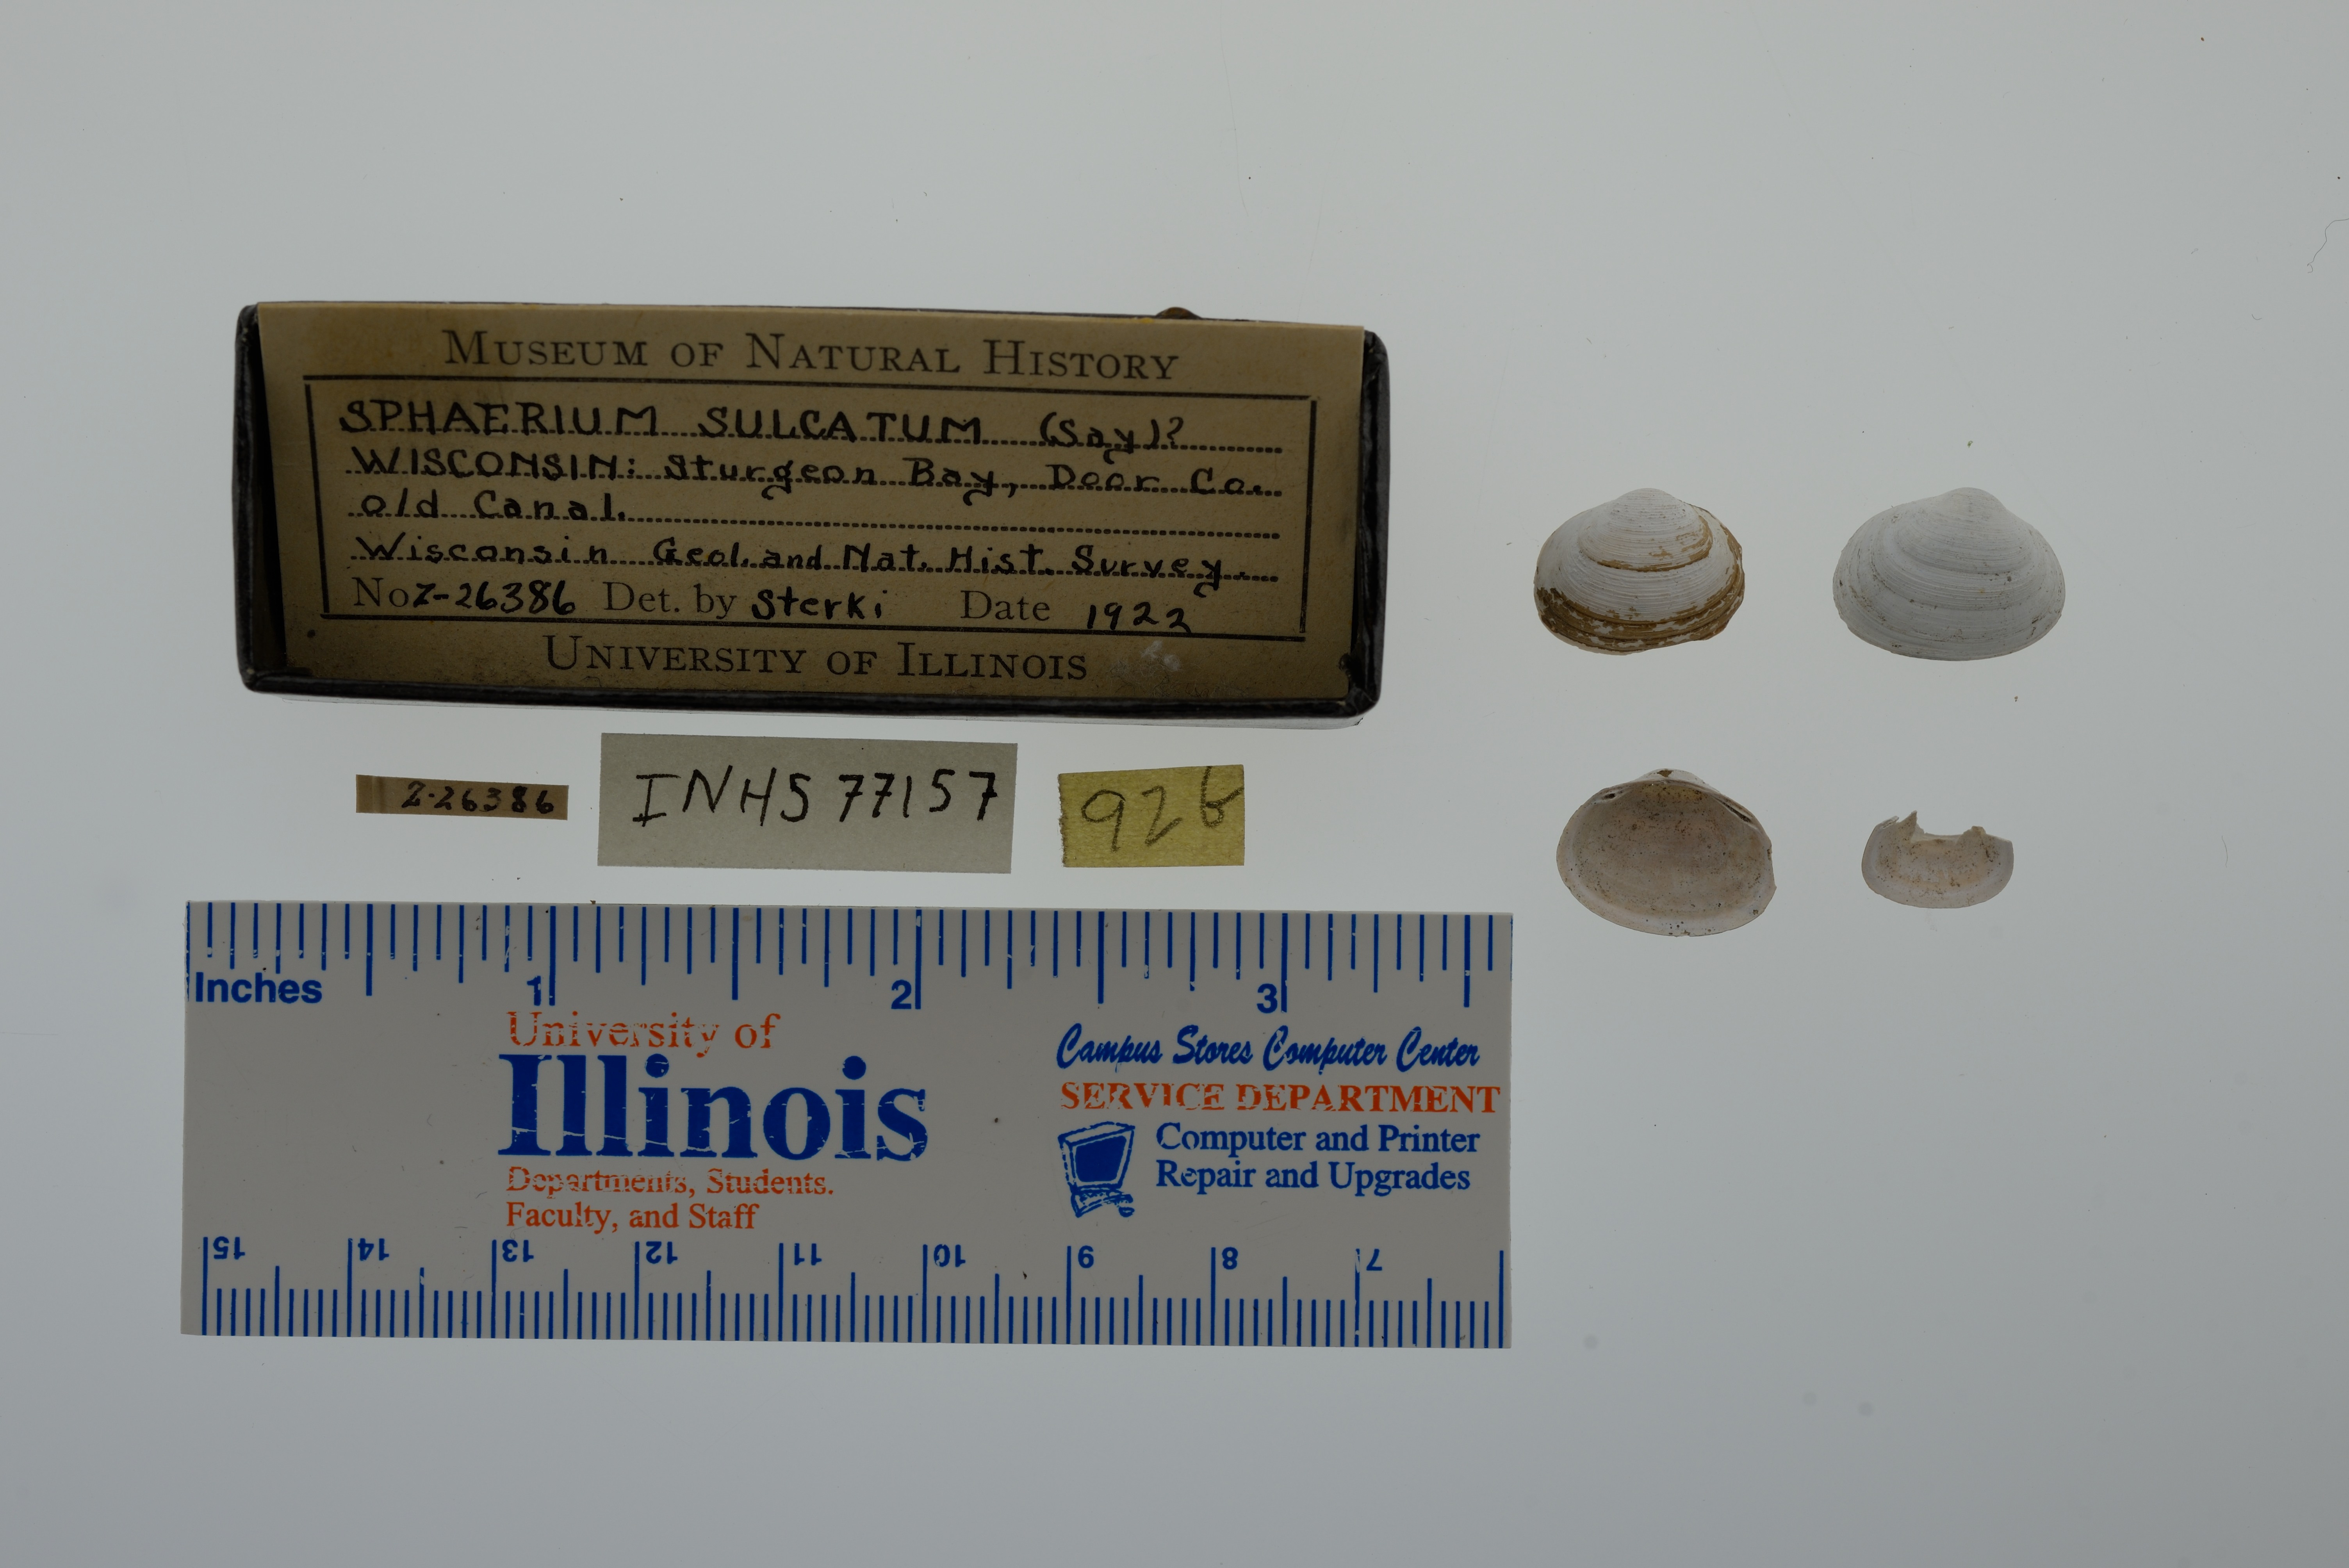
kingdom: Animalia
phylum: Mollusca
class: Bivalvia
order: Sphaeriida
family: Sphaeriidae
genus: Sphaerium
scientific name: Sphaerium simile
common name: Grooved fingernailclam
